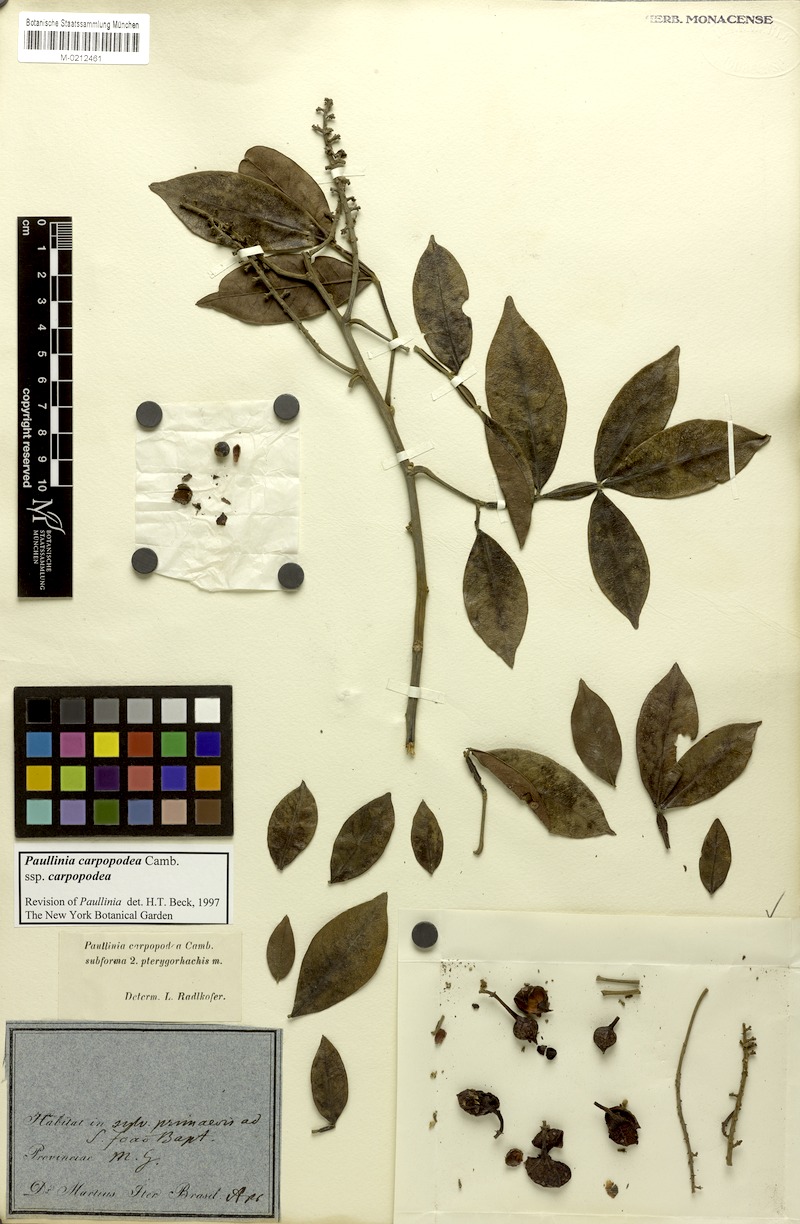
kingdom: Plantae
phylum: Tracheophyta
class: Magnoliopsida
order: Sapindales
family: Sapindaceae
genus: Paullinia
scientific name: Paullinia carpopoda
